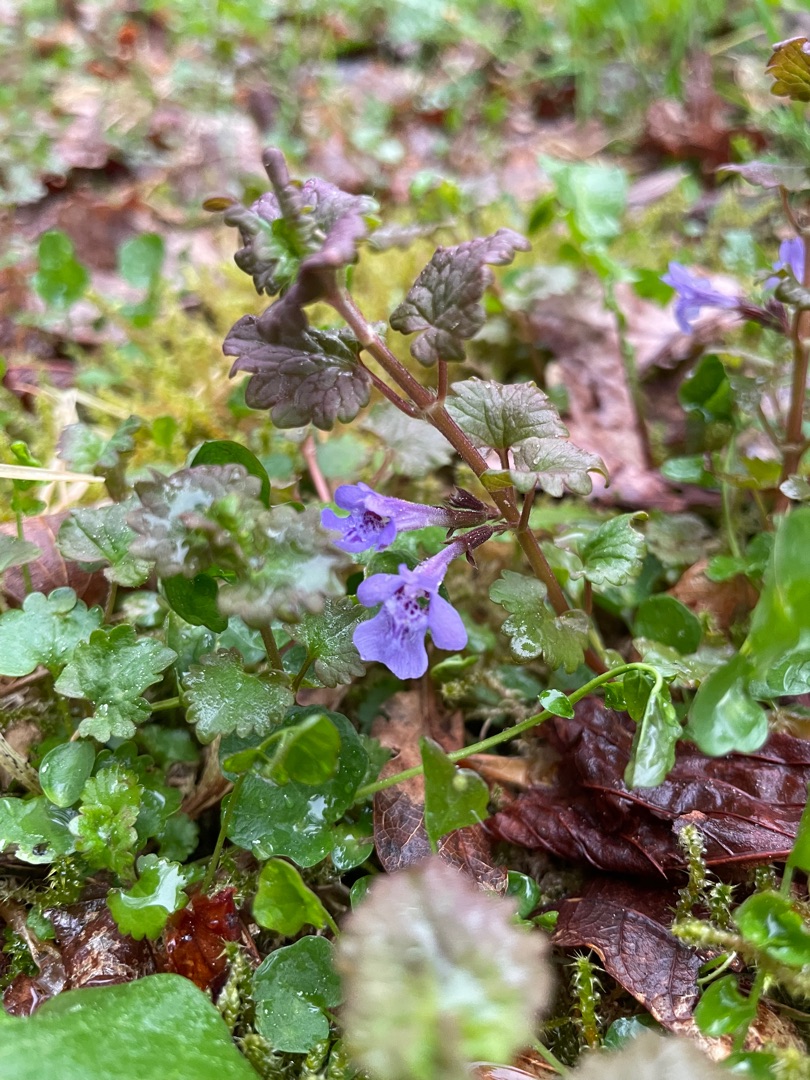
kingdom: Plantae
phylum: Tracheophyta
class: Magnoliopsida
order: Lamiales
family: Lamiaceae
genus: Glechoma
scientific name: Glechoma hederacea
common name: Korsknap
